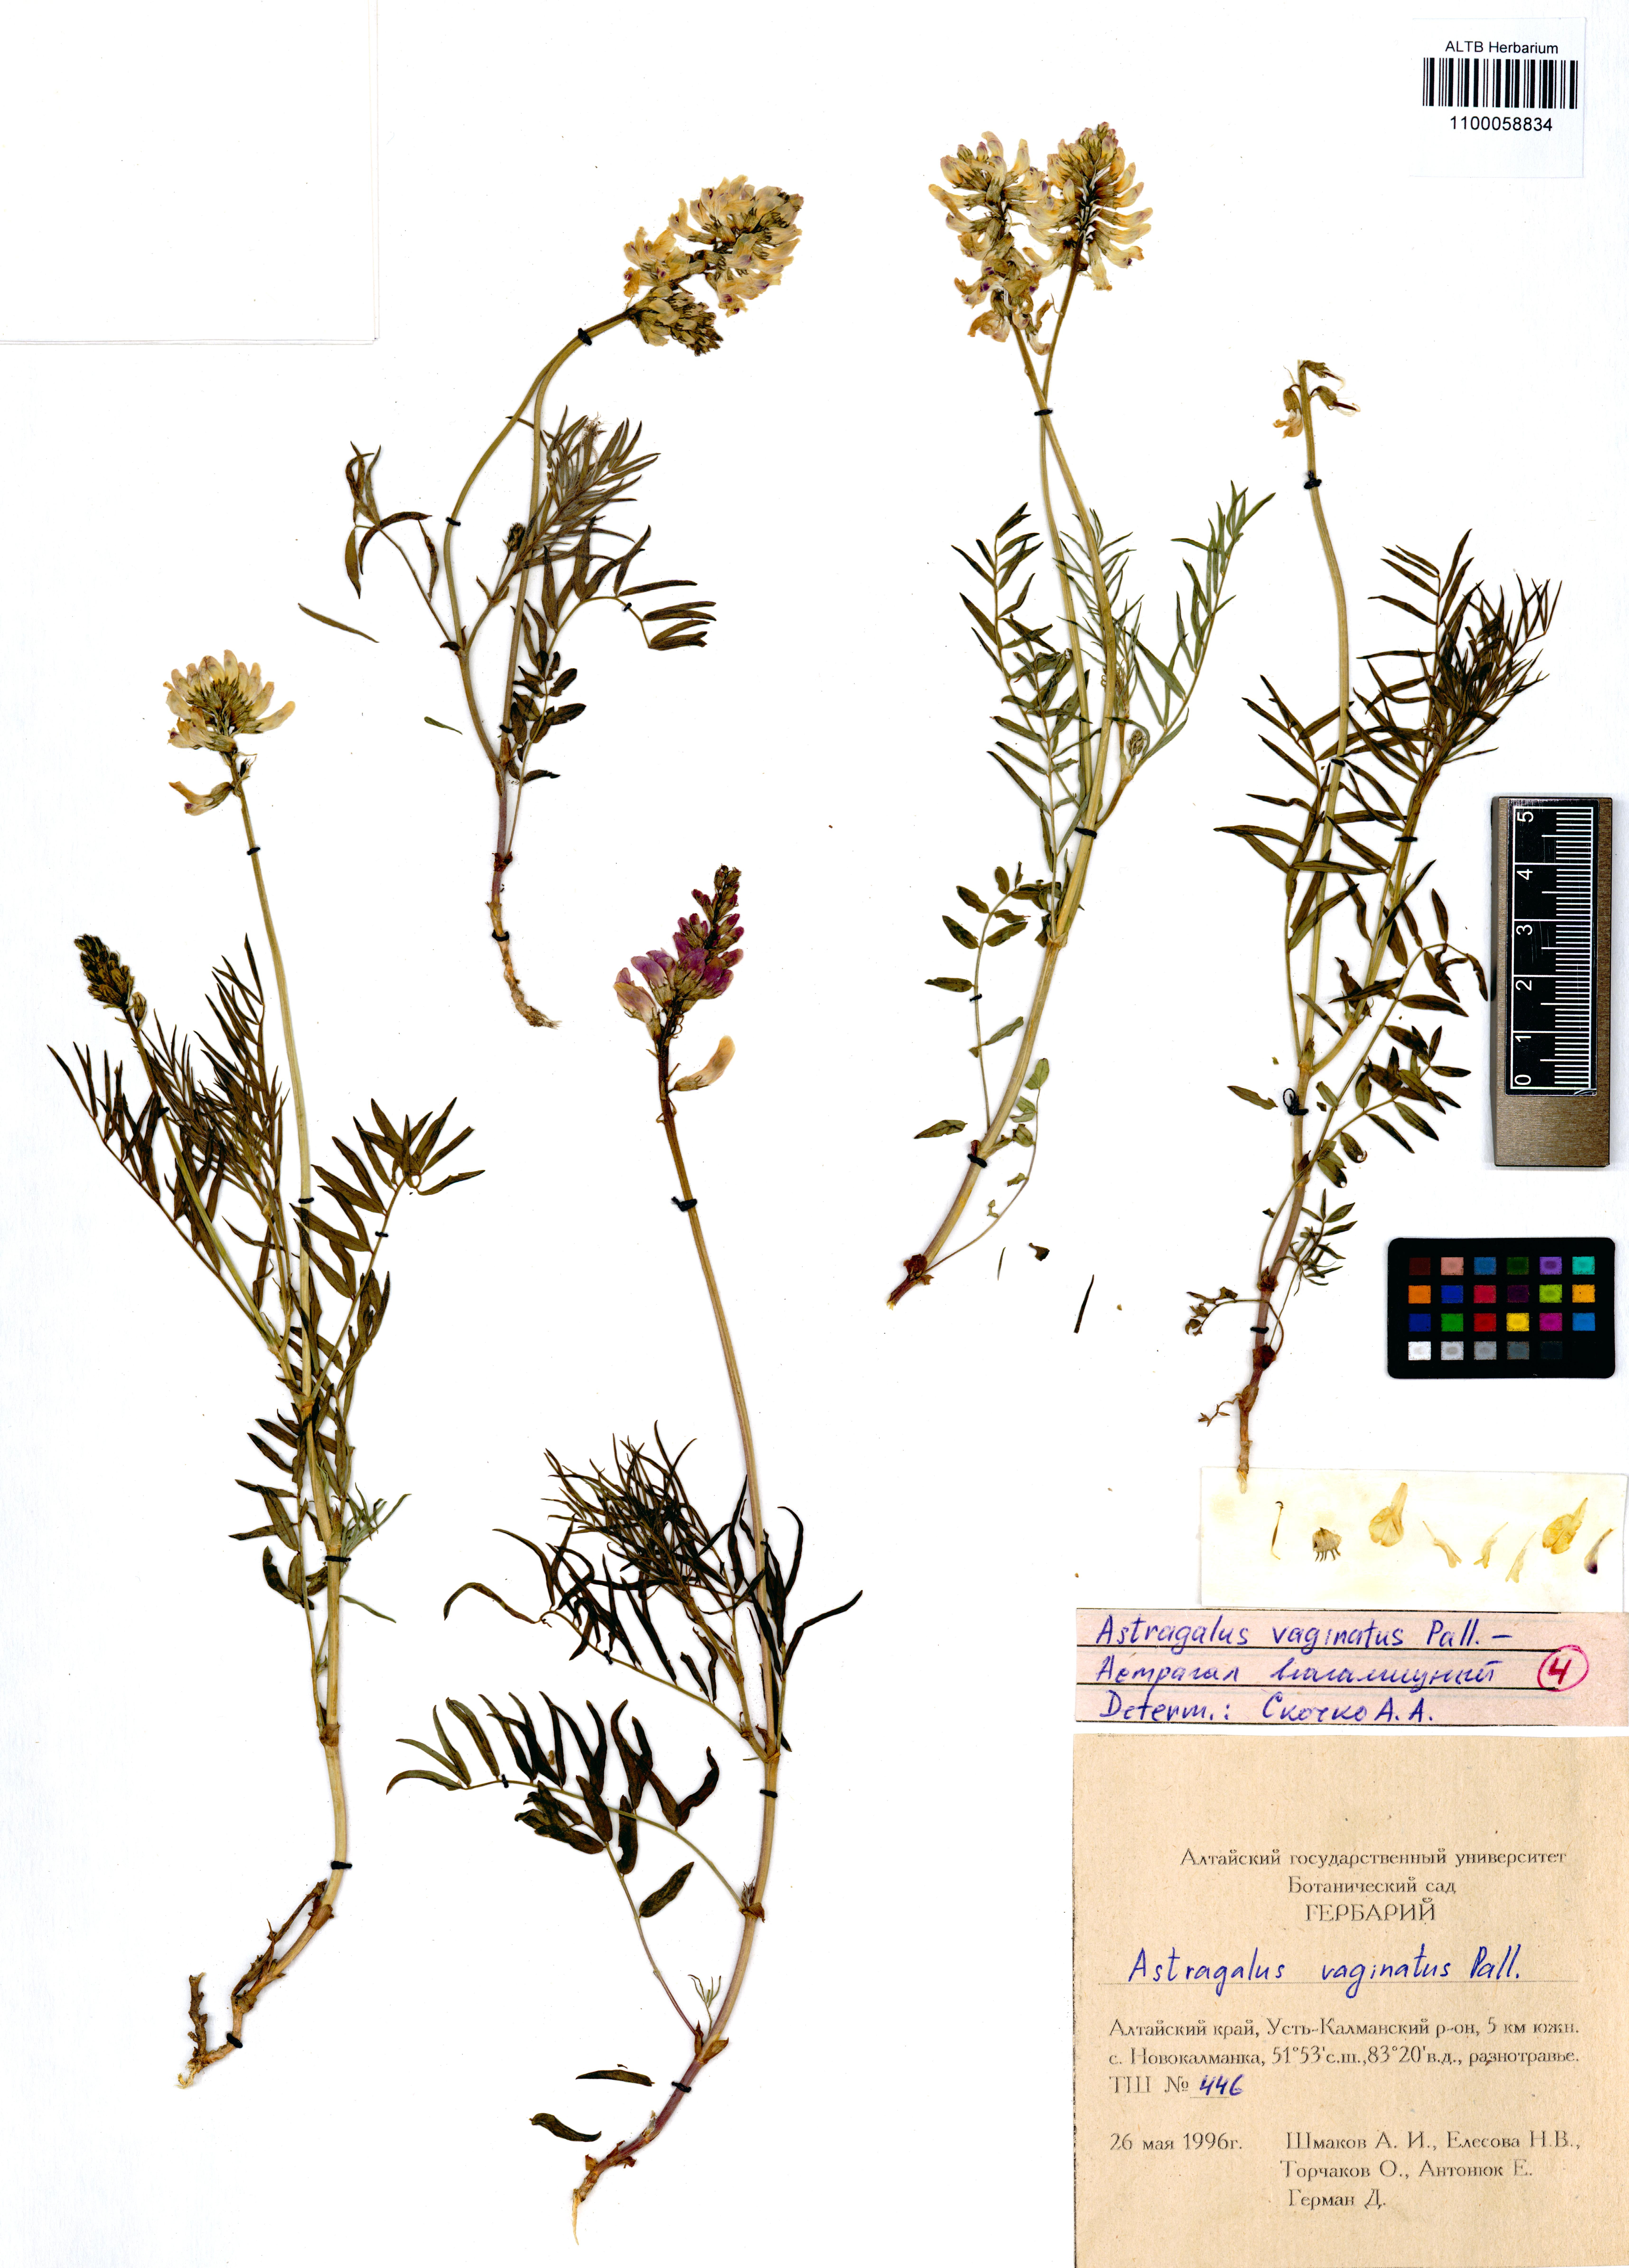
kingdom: Plantae
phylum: Tracheophyta
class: Magnoliopsida
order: Fabales
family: Fabaceae
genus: Astragalus
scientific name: Astragalus vaginatus
